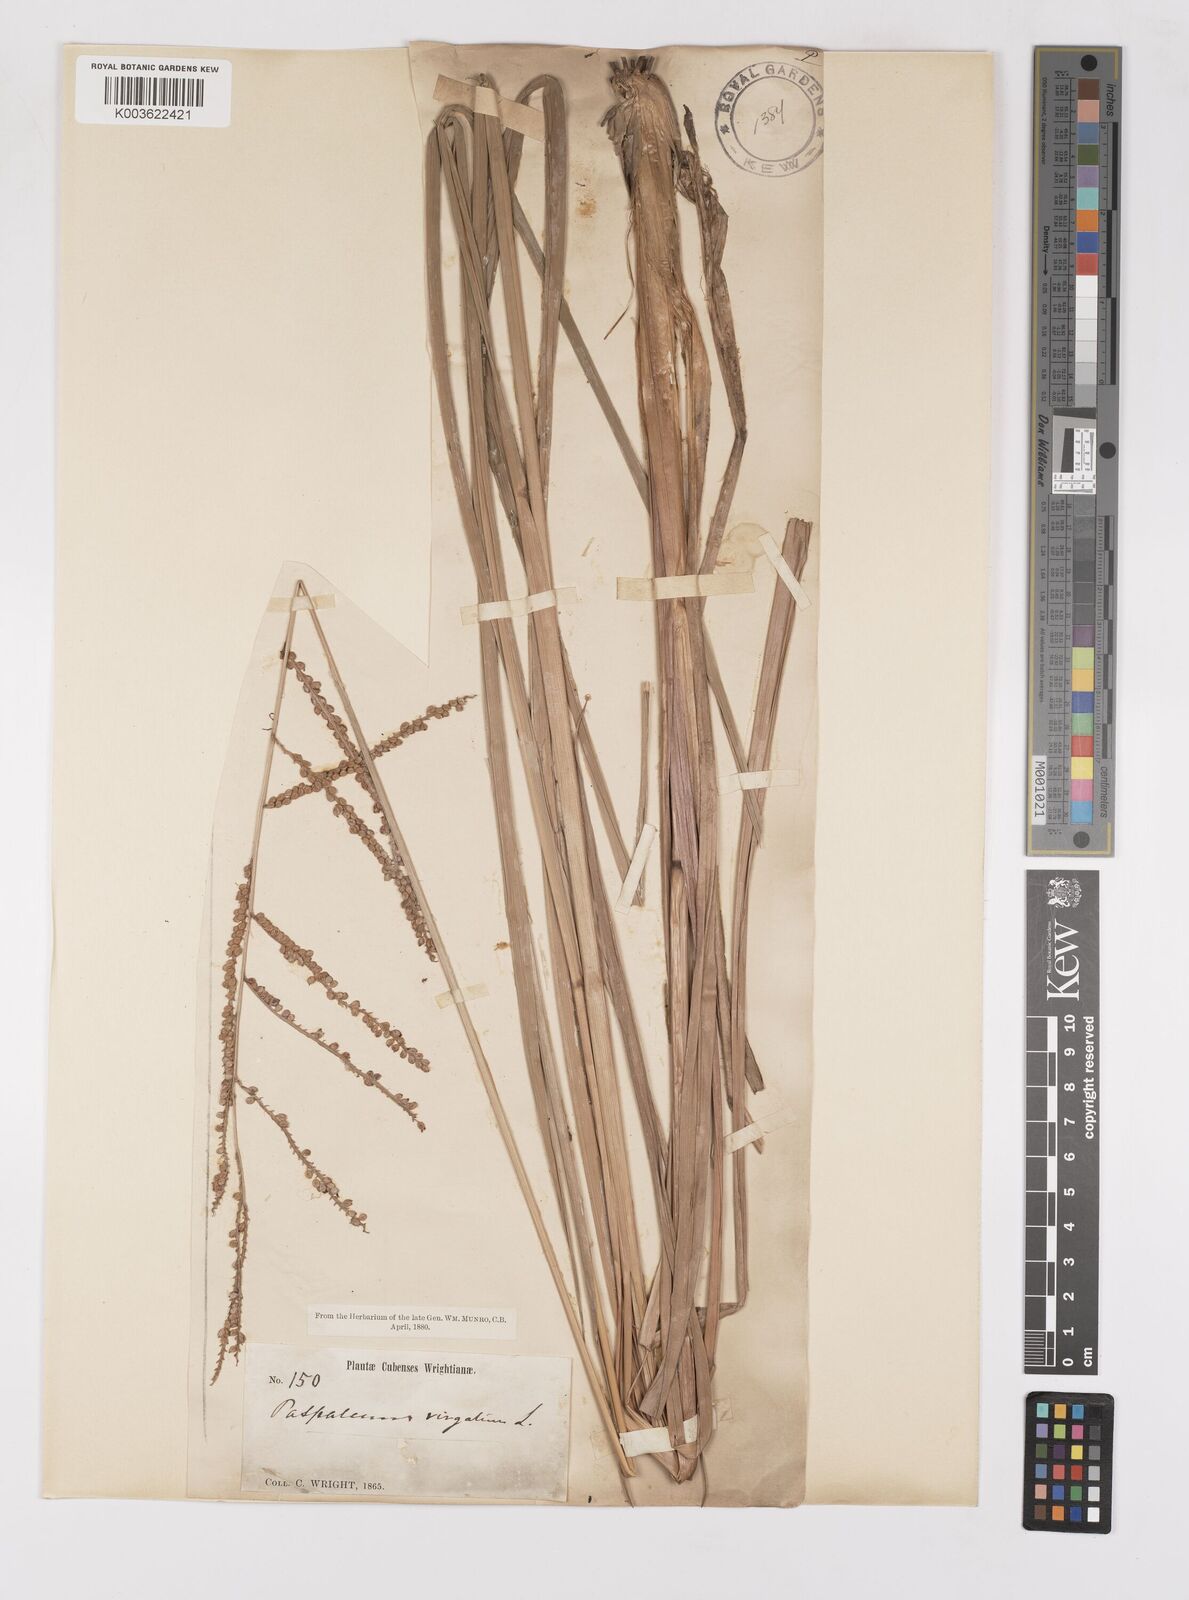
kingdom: Plantae
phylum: Tracheophyta
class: Liliopsida
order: Poales
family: Poaceae
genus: Paspalum
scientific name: Paspalum virgatum
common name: Talquezal
